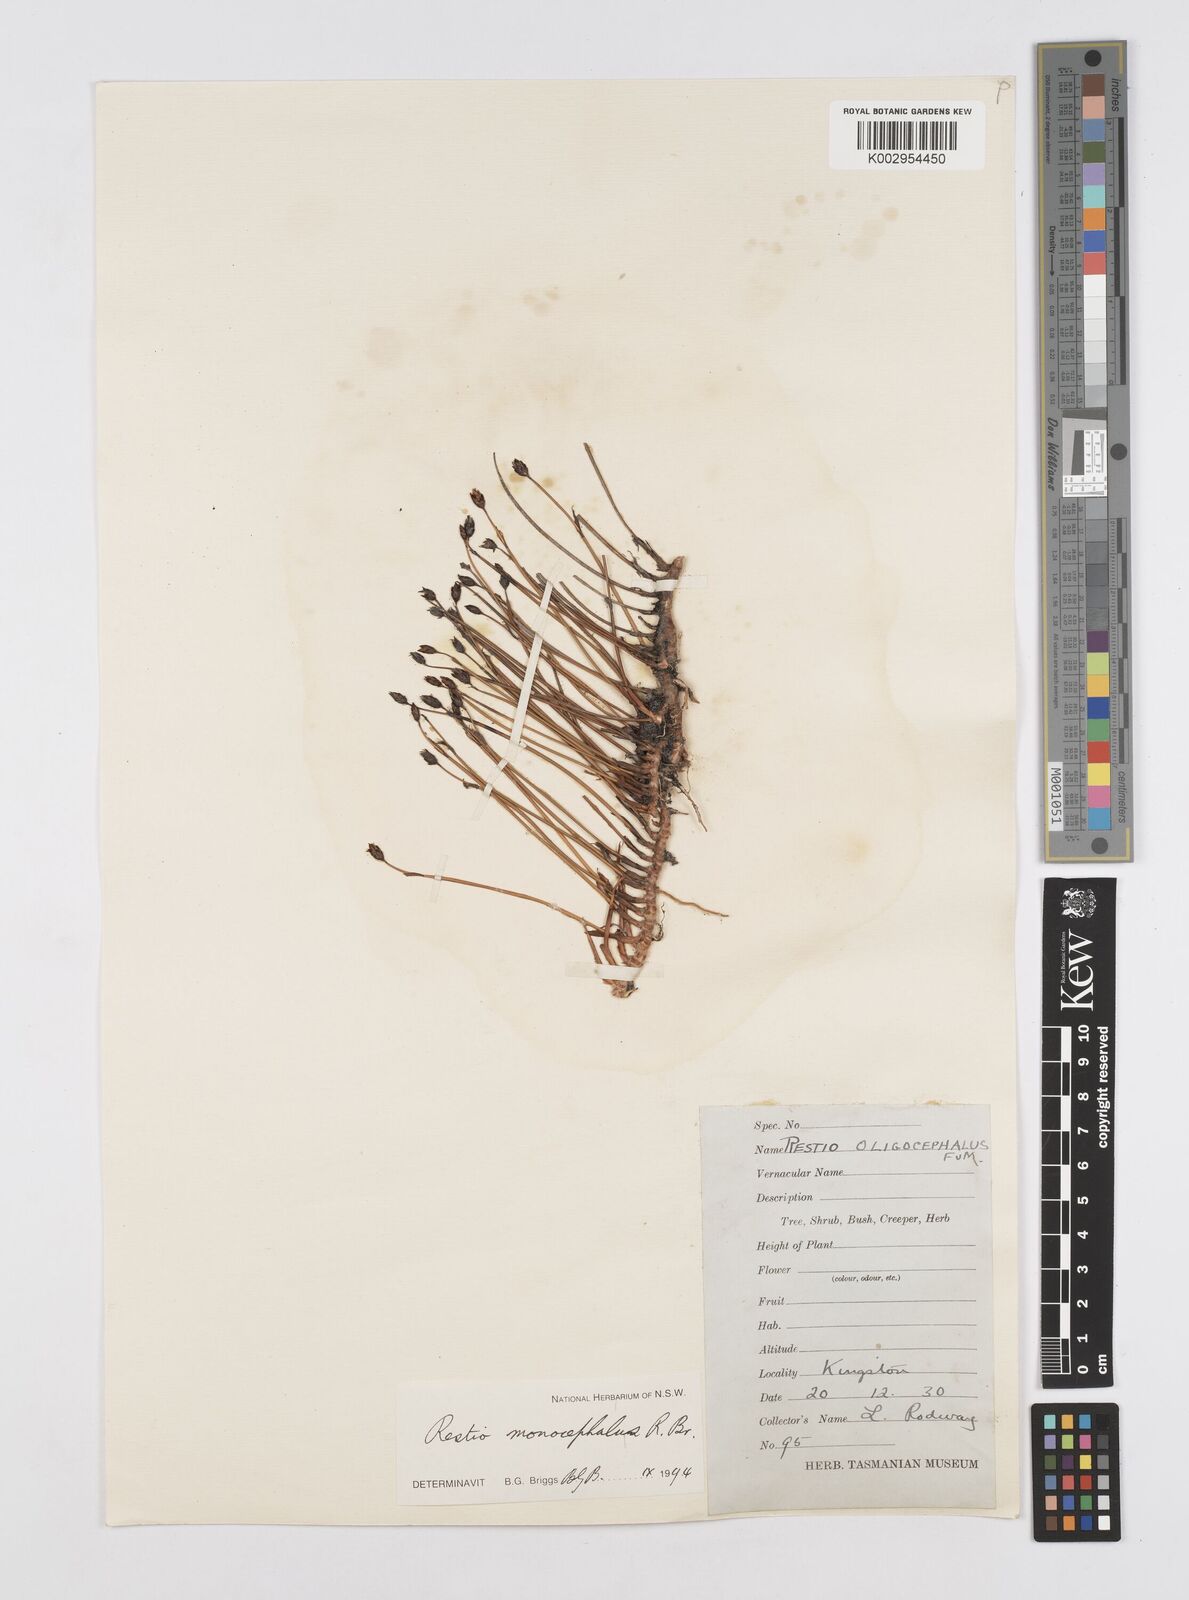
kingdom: Plantae
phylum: Tracheophyta
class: Liliopsida
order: Poales
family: Restionaceae
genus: Chordifex
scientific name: Chordifex monocephalus
